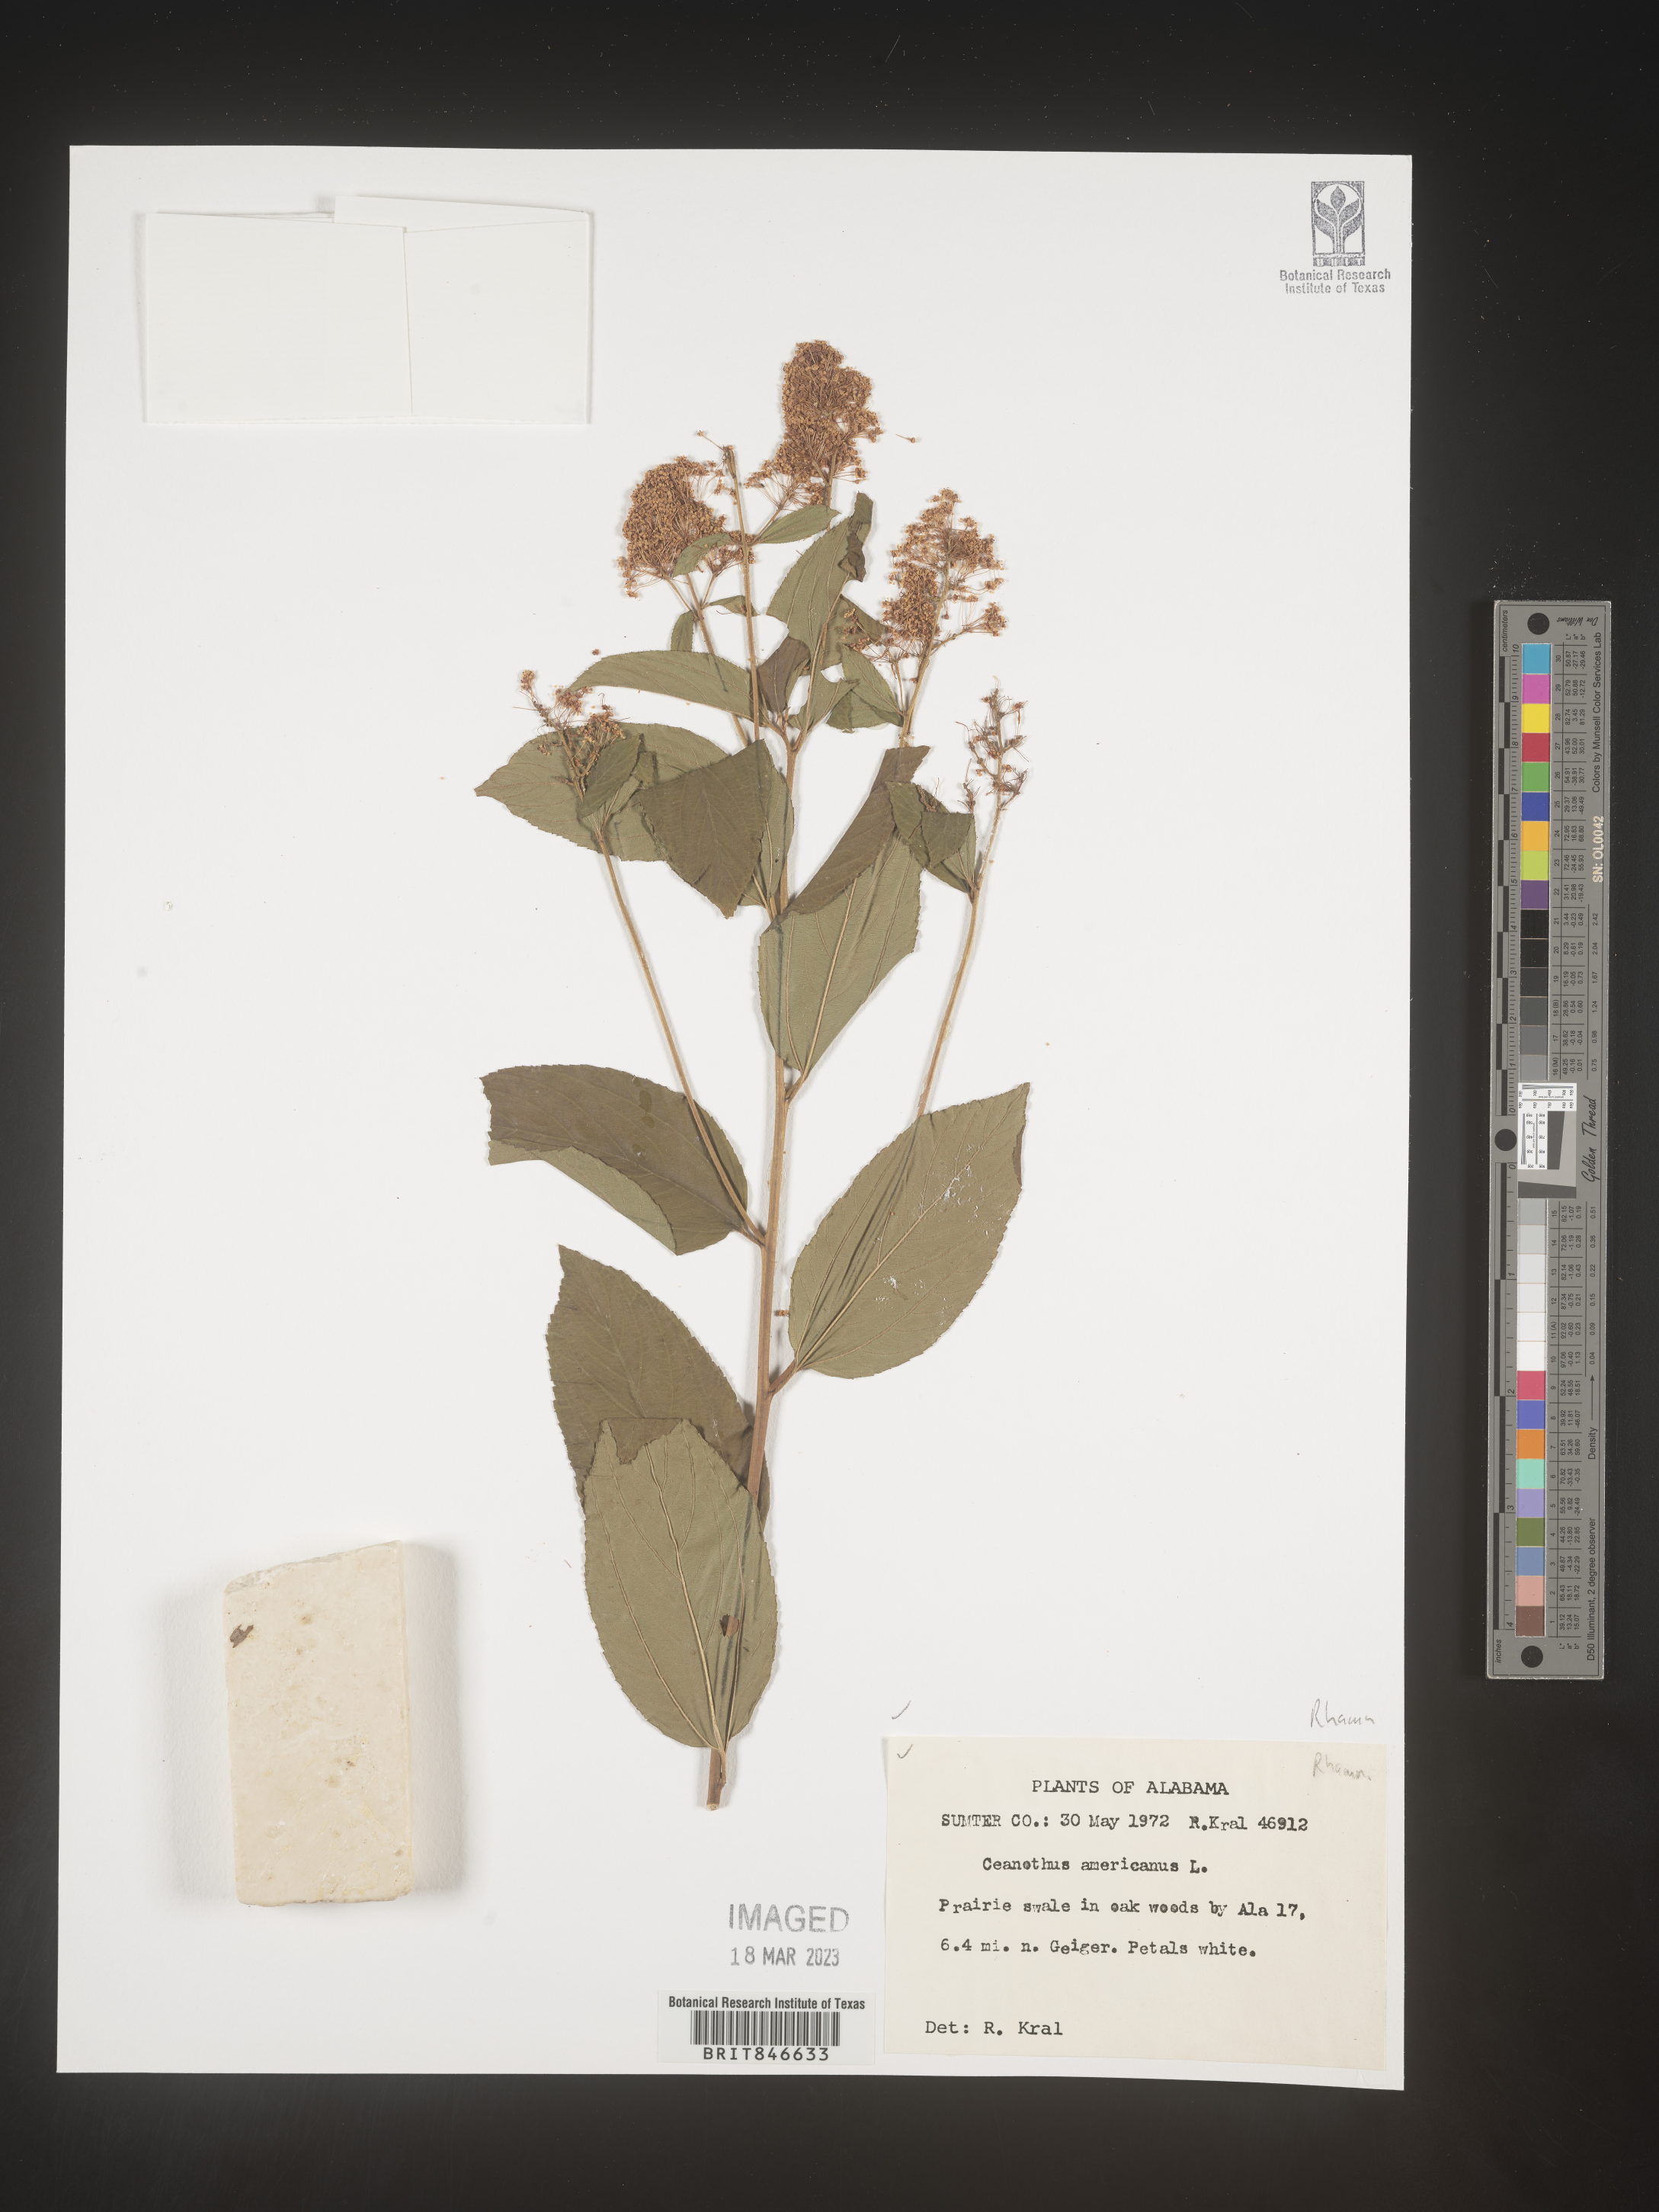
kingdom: Plantae
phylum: Tracheophyta
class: Magnoliopsida
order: Rosales
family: Rhamnaceae
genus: Ceanothus
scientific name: Ceanothus americanus
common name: Redroot
